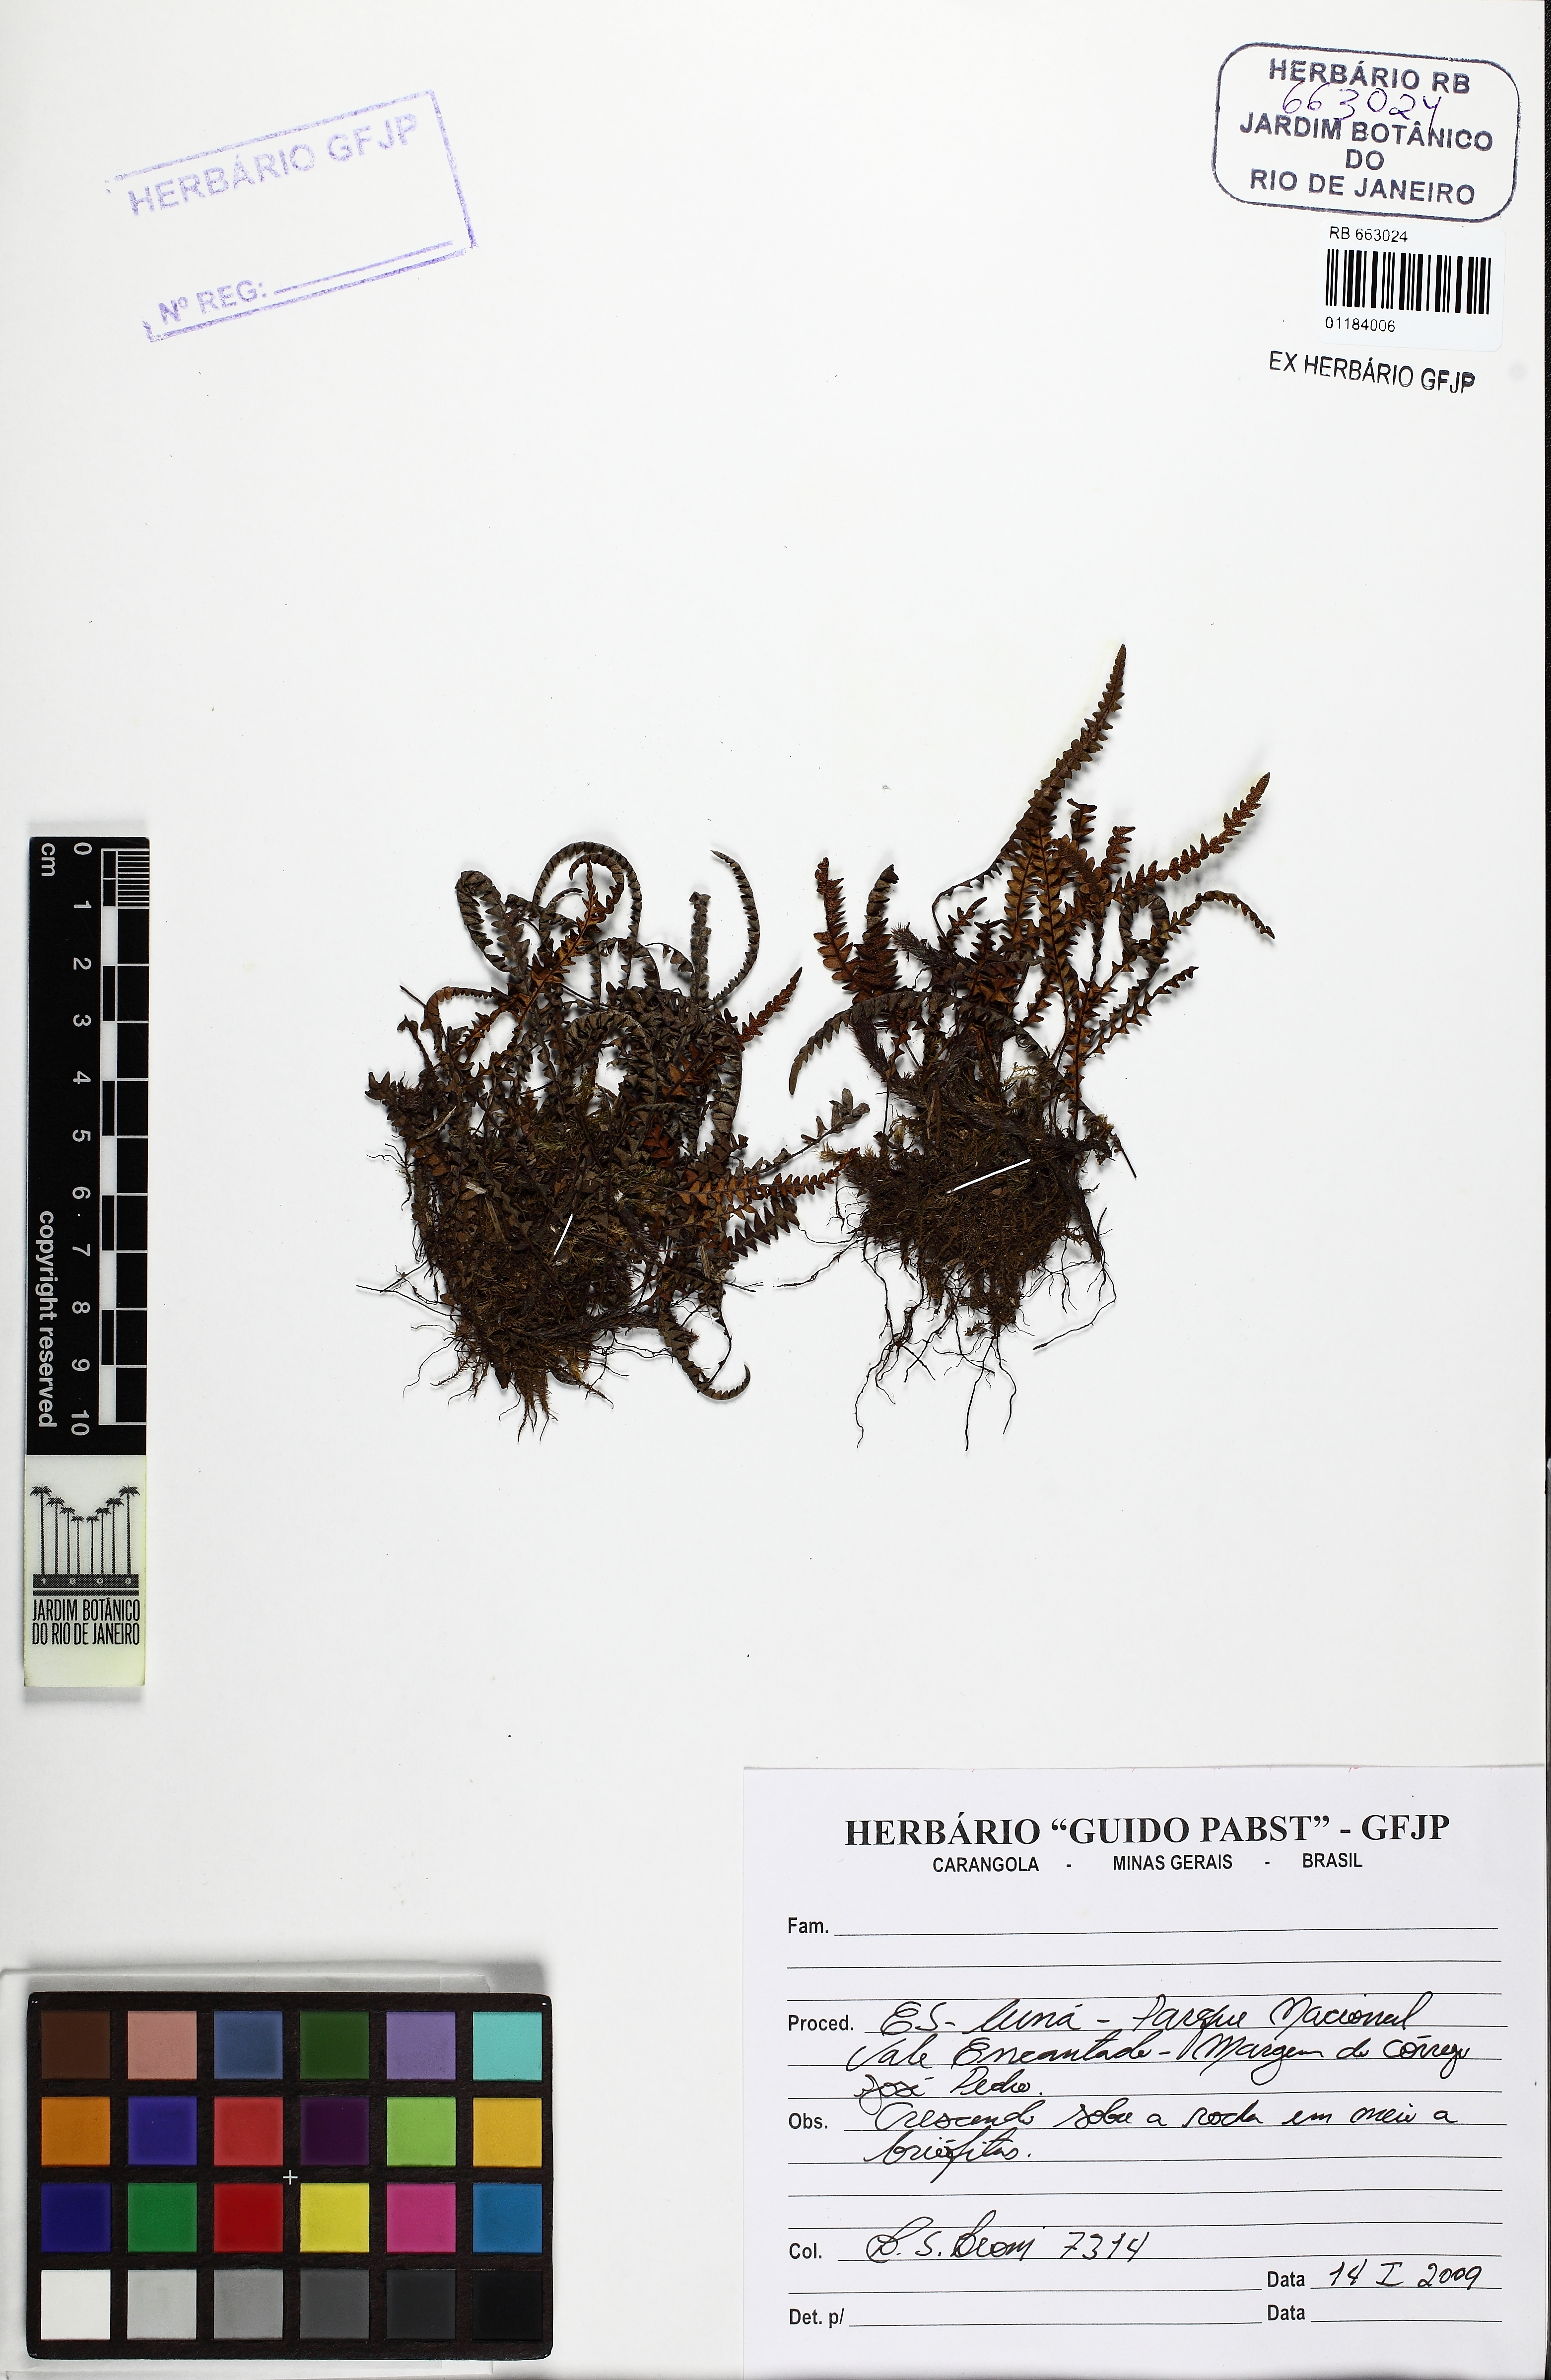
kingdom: Plantae
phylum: Tracheophyta
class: Polypodiopsida
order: Polypodiales
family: Polypodiaceae
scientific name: Polypodiaceae
